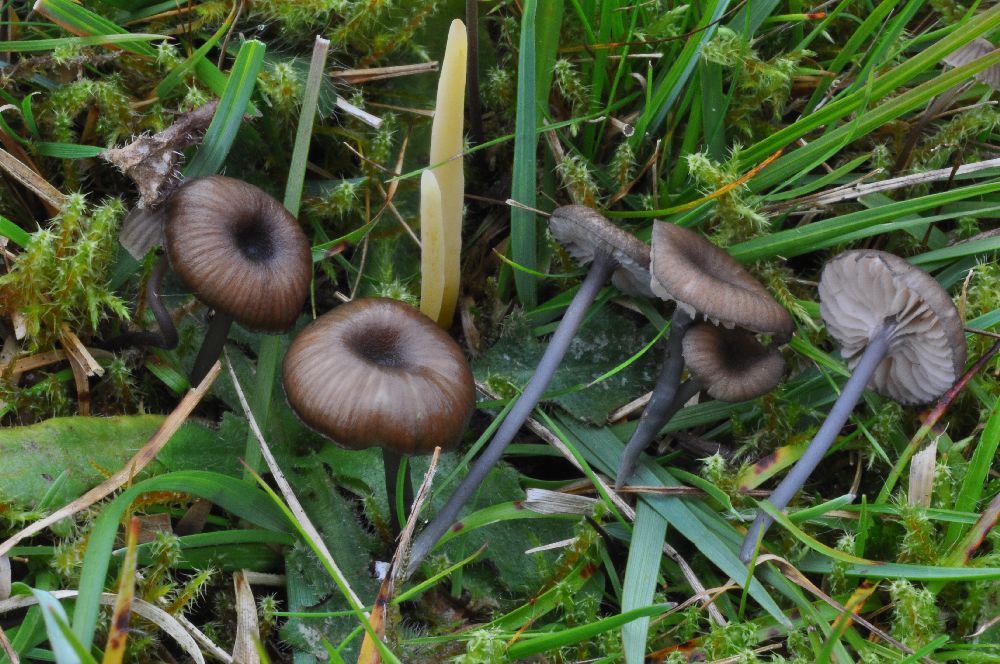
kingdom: Fungi
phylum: Basidiomycota
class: Agaricomycetes
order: Agaricales
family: Entolomataceae
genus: Entoloma
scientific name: Entoloma
